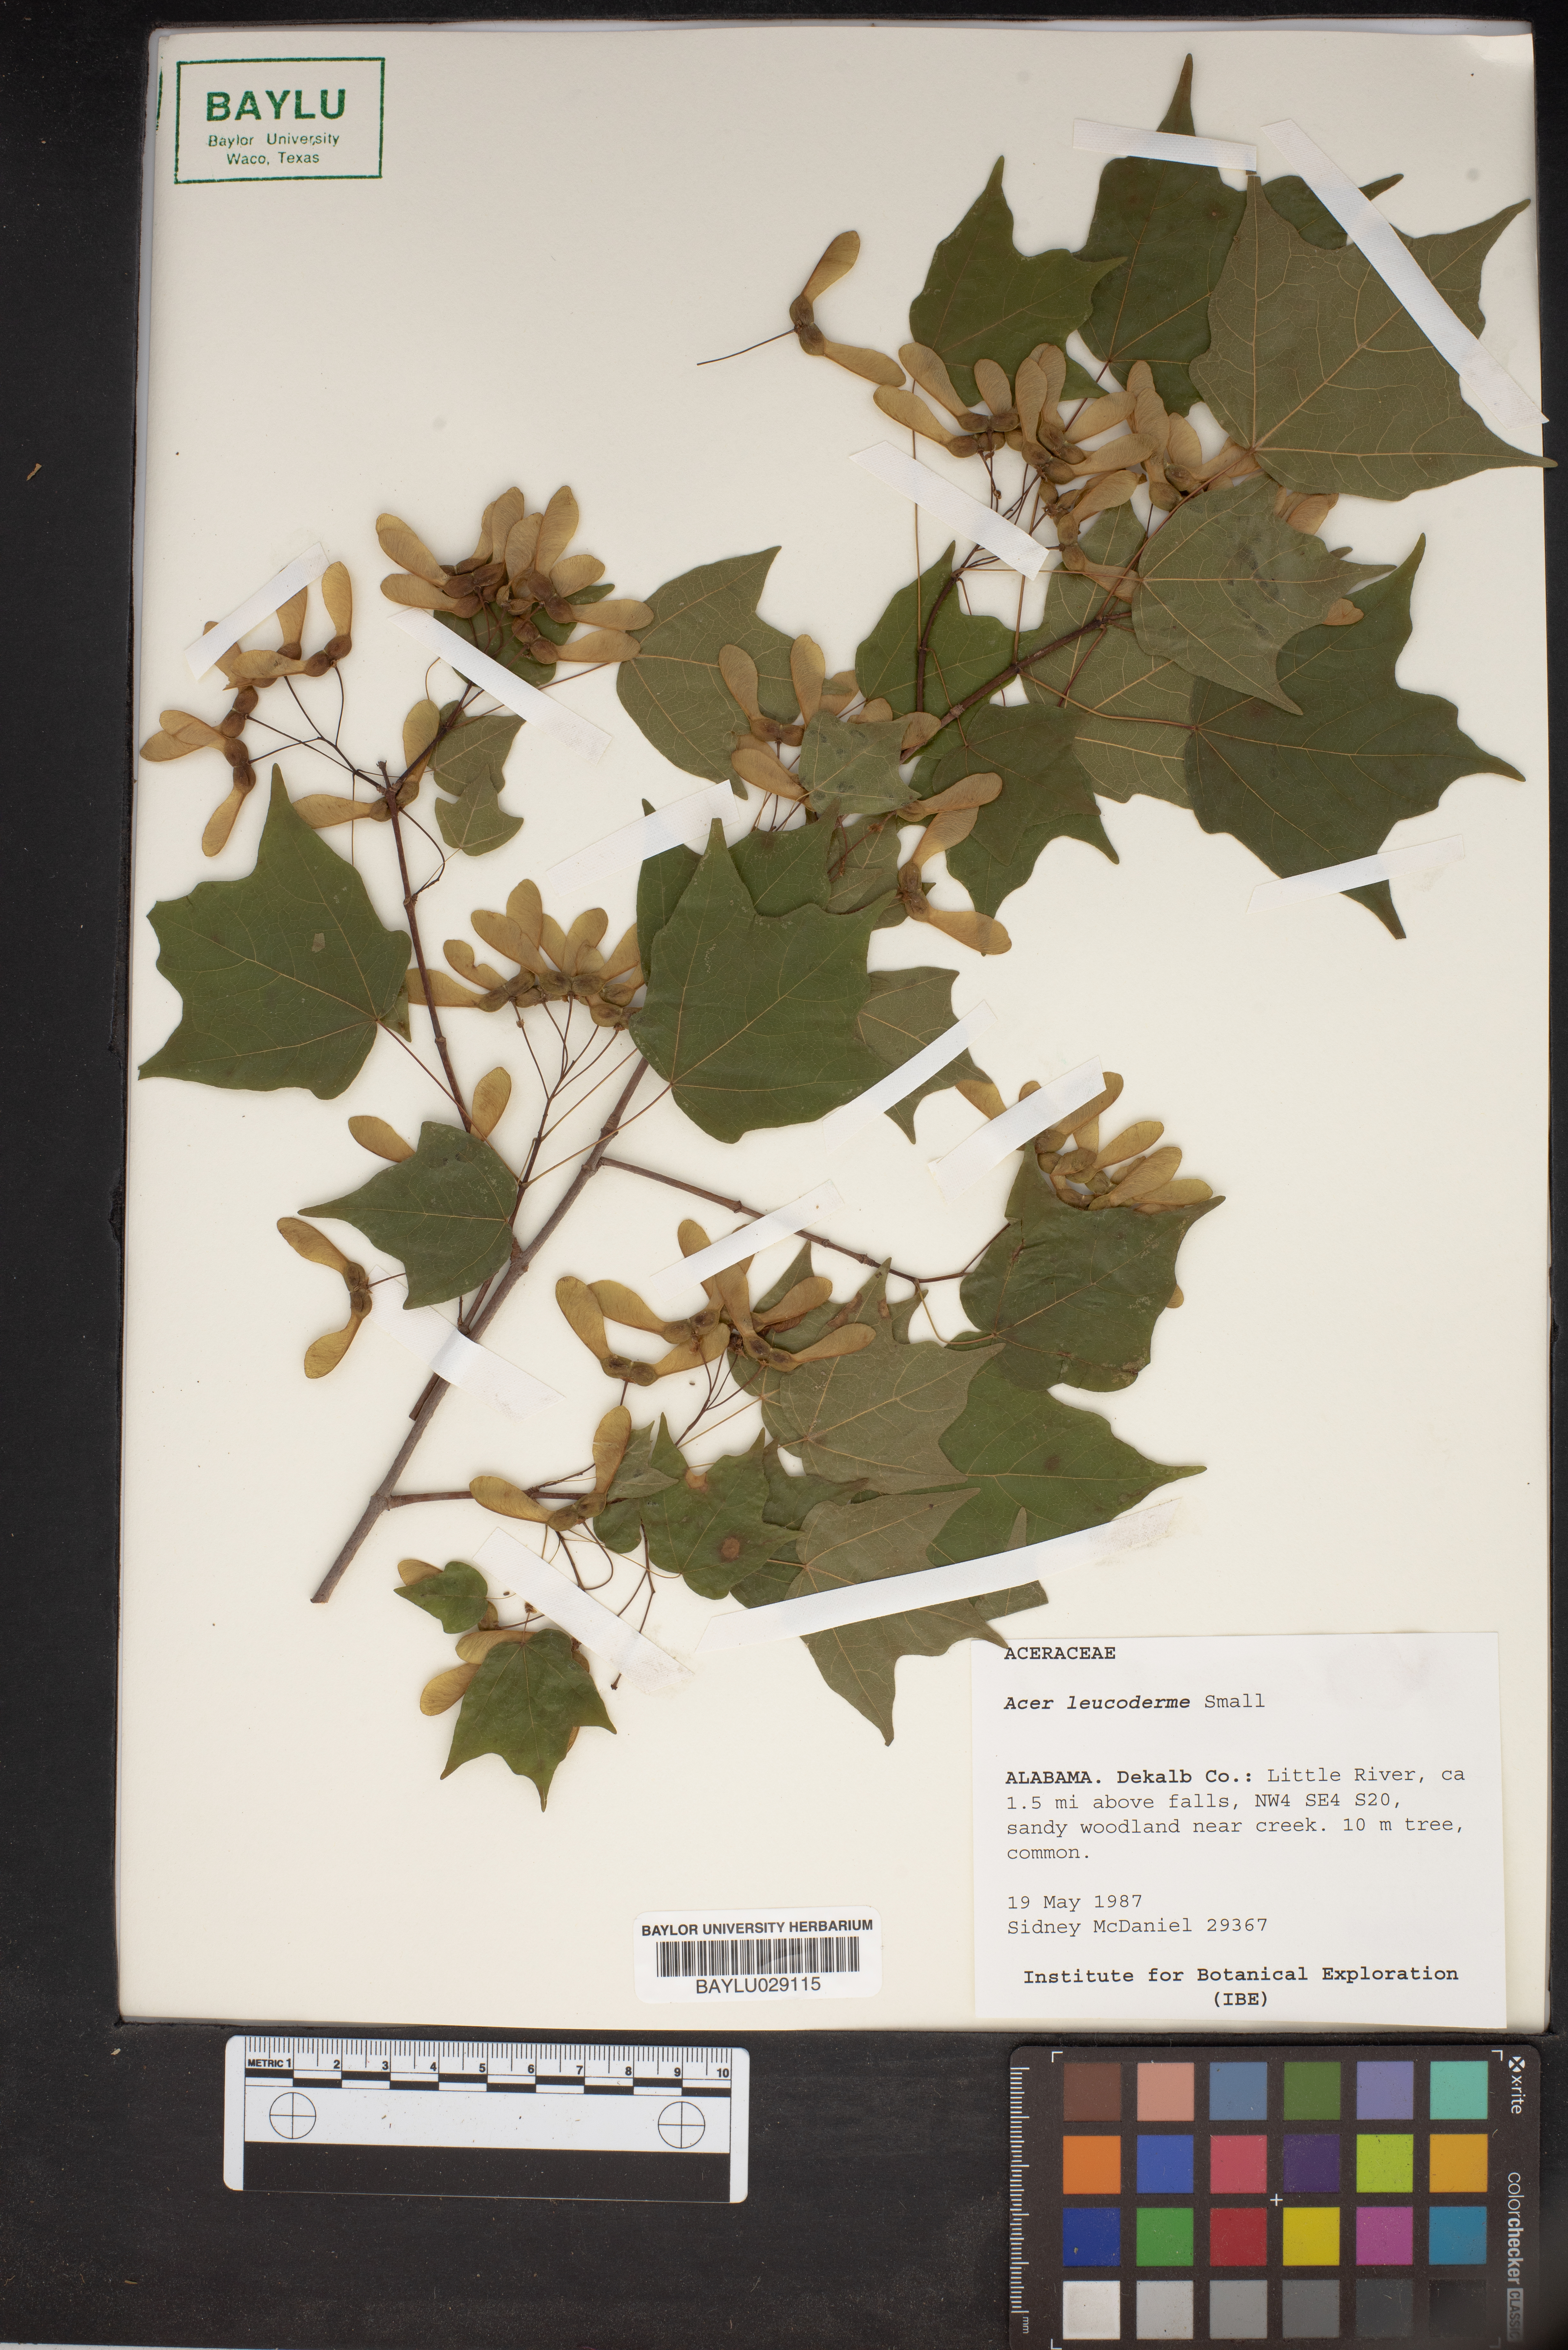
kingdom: Plantae
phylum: Tracheophyta
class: Magnoliopsida
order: Sapindales
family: Sapindaceae
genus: Acer
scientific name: Acer leucoderme
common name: Chalk maple
